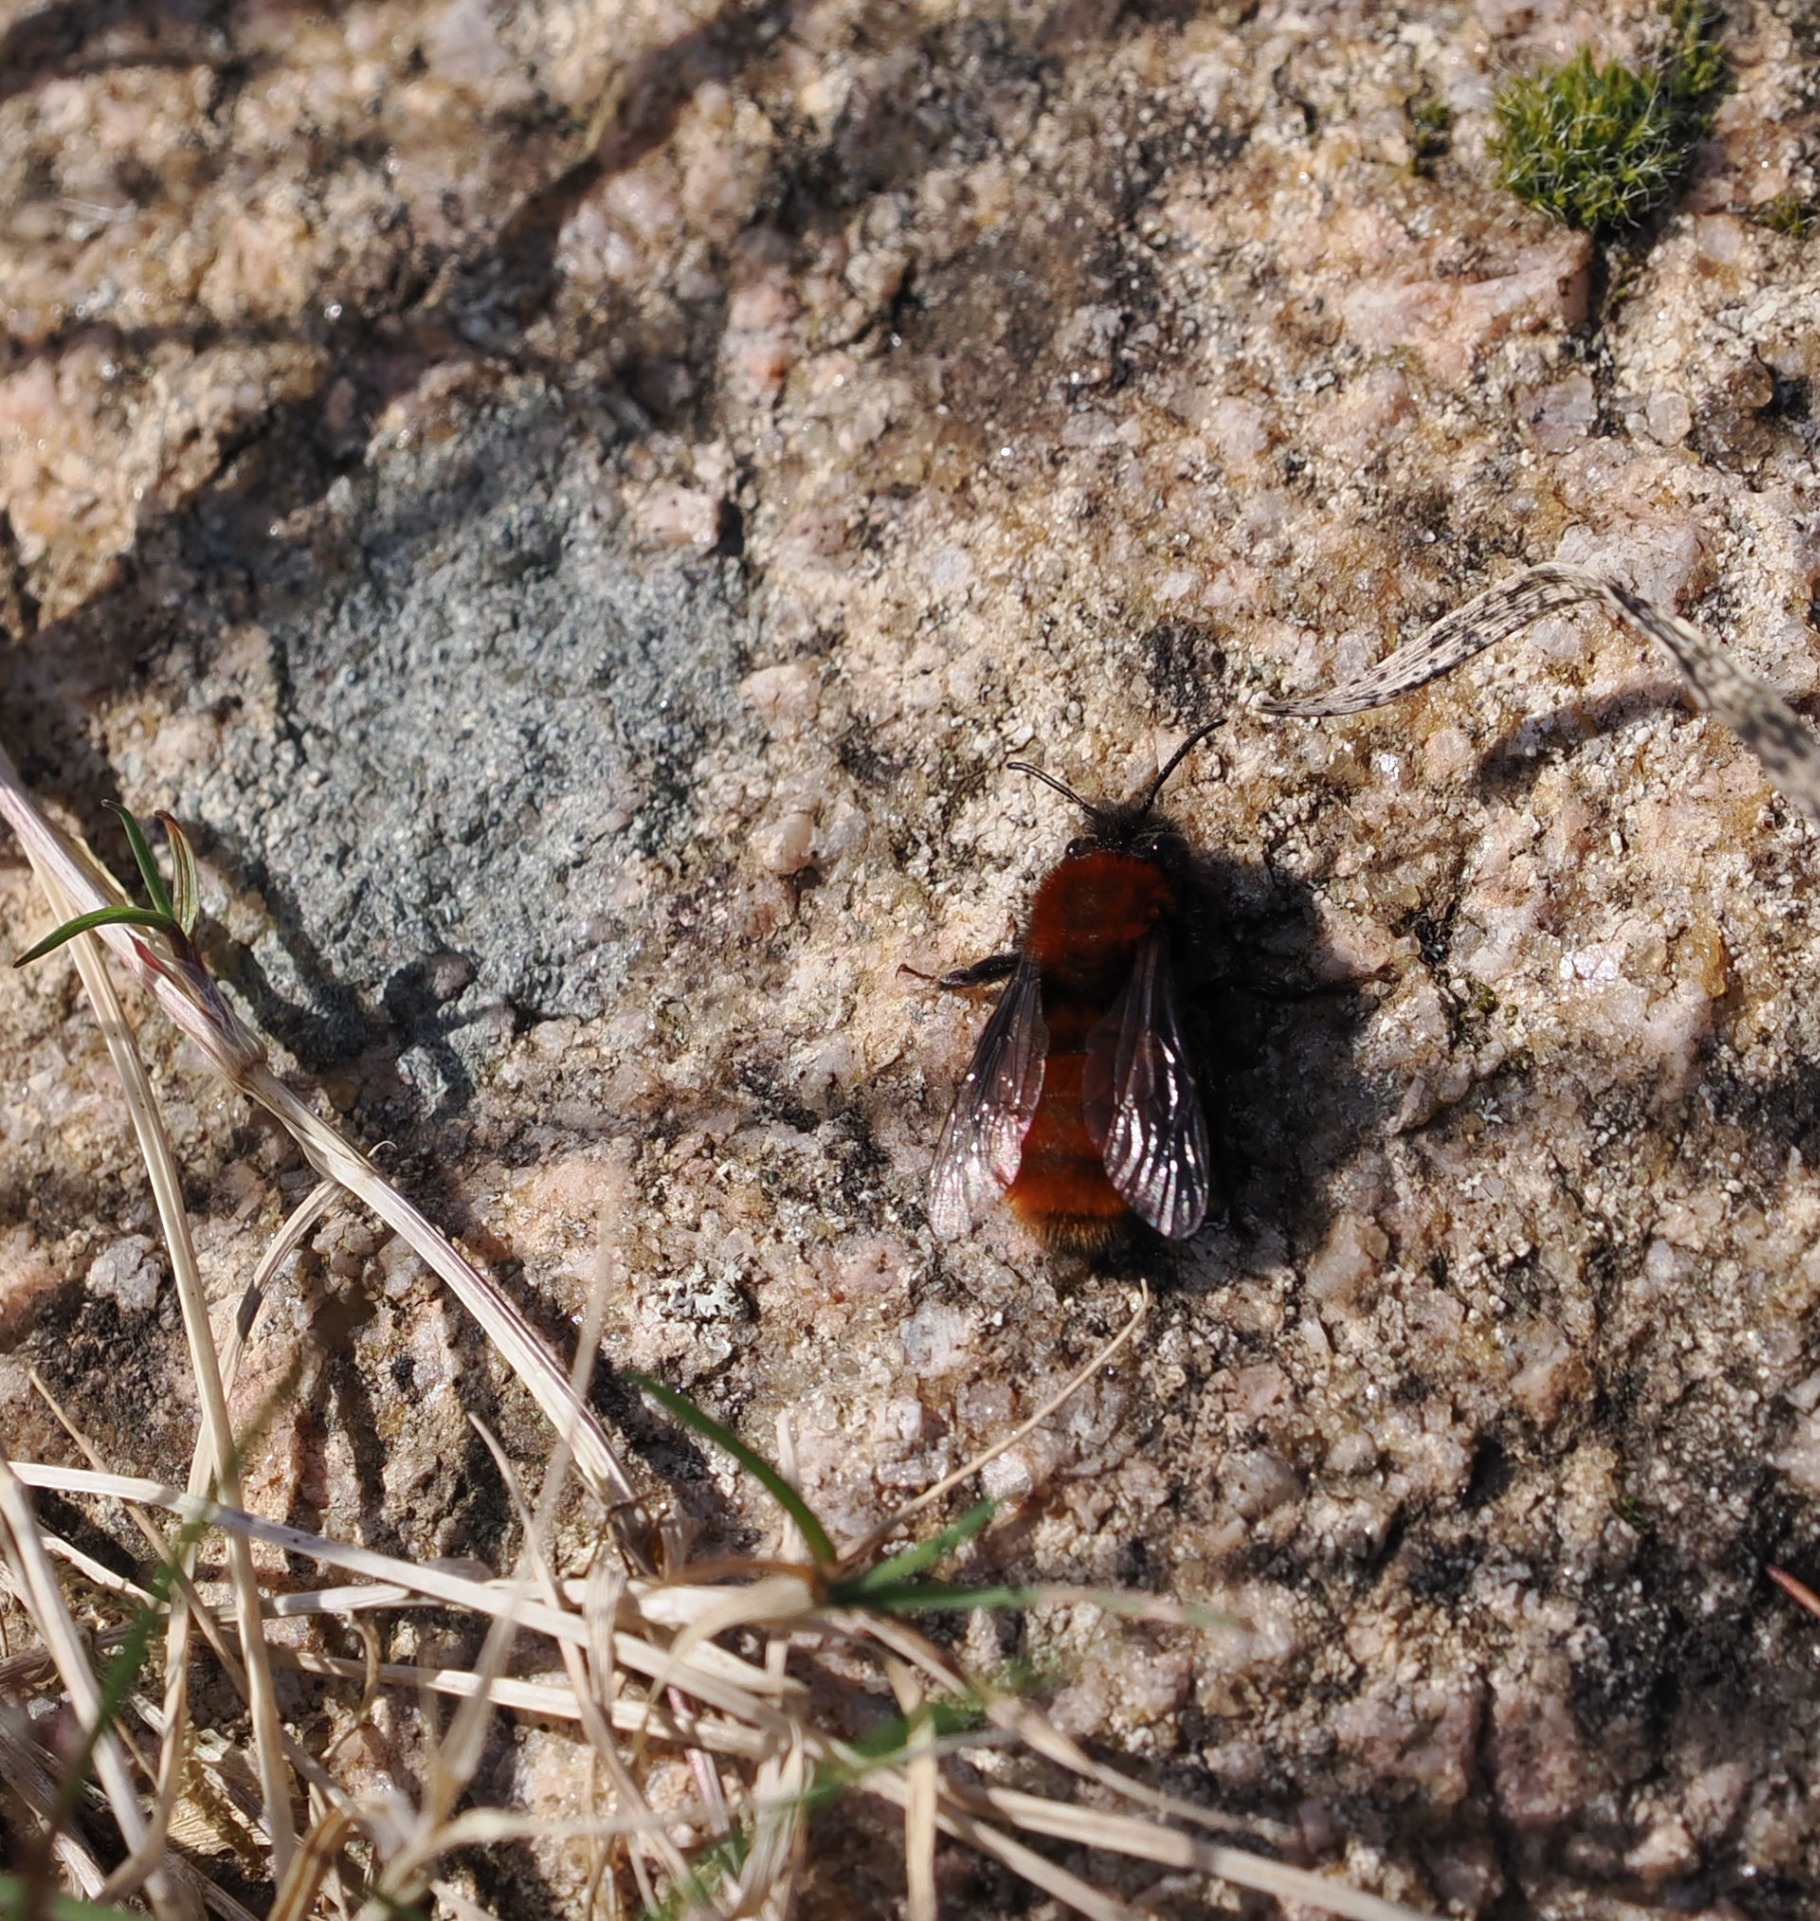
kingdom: Animalia
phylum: Arthropoda
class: Insecta
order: Hymenoptera
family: Andrenidae
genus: Andrena
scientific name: Andrena fulva
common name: Rødpelset jordbi
